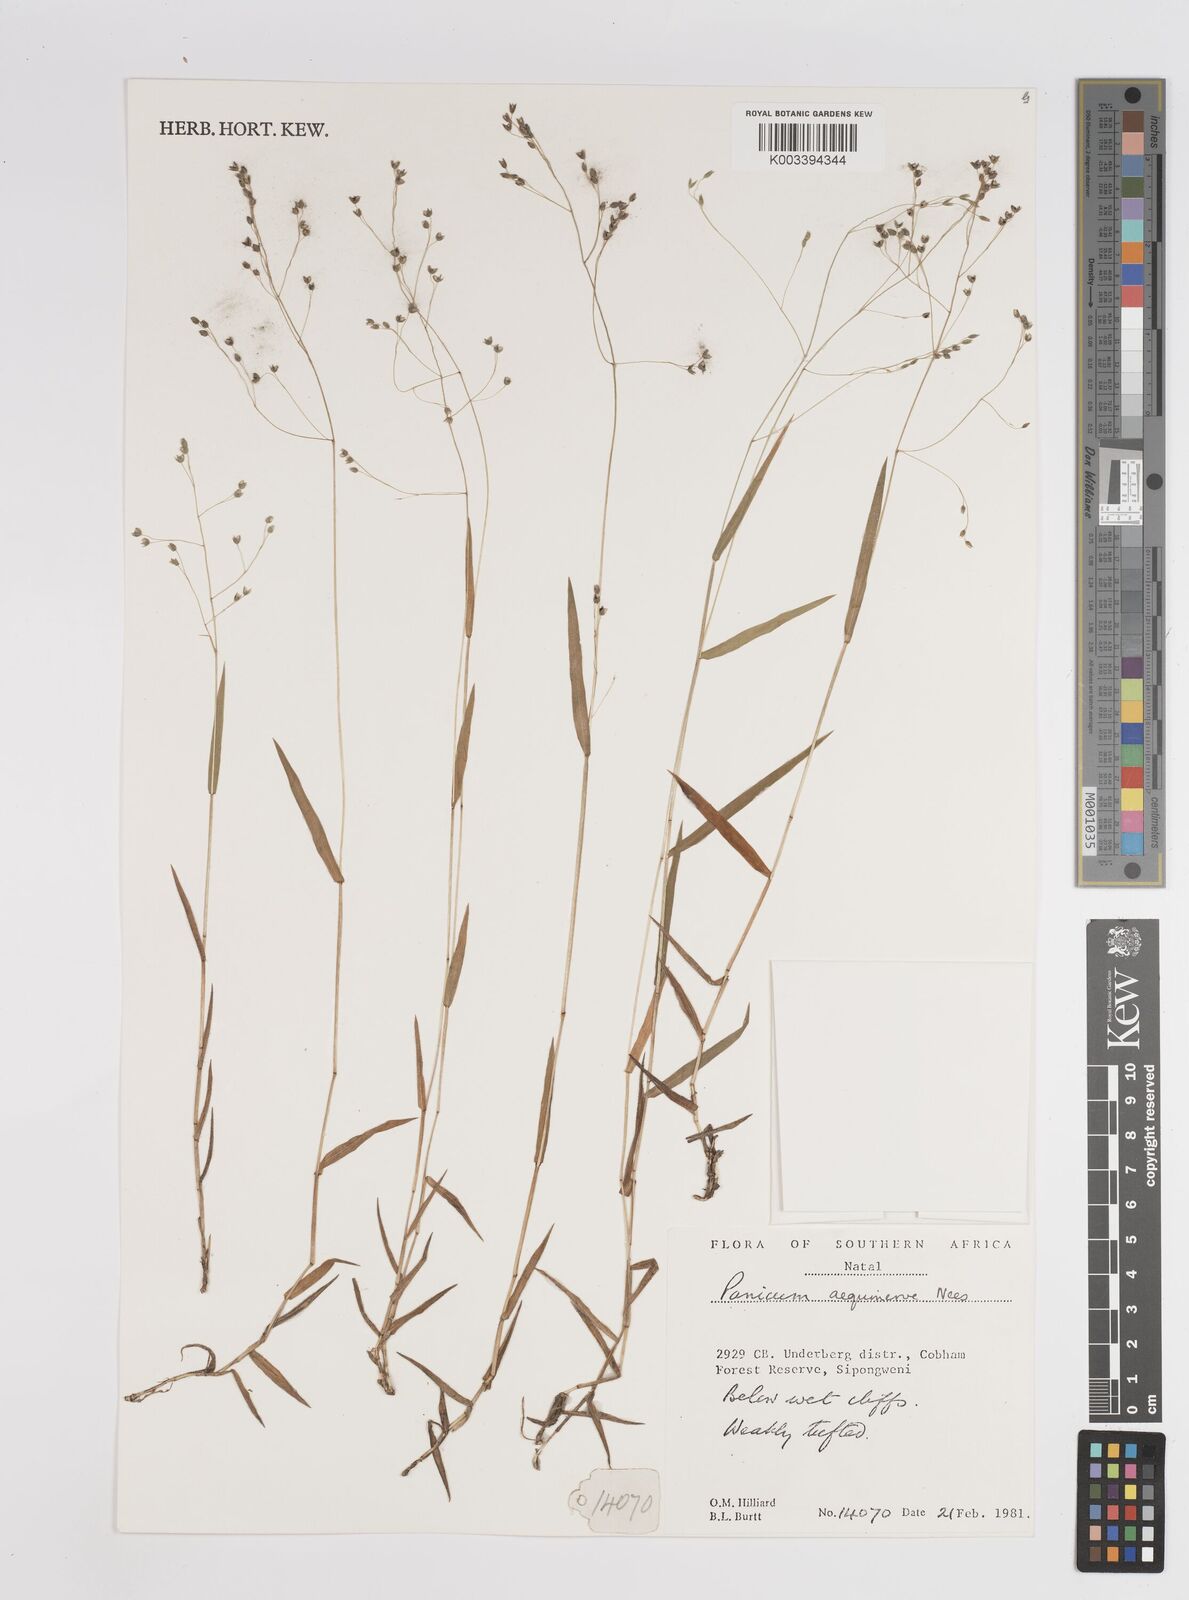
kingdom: Plantae
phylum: Tracheophyta
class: Liliopsida
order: Poales
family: Poaceae
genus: Panicum
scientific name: Panicum aequinerve
